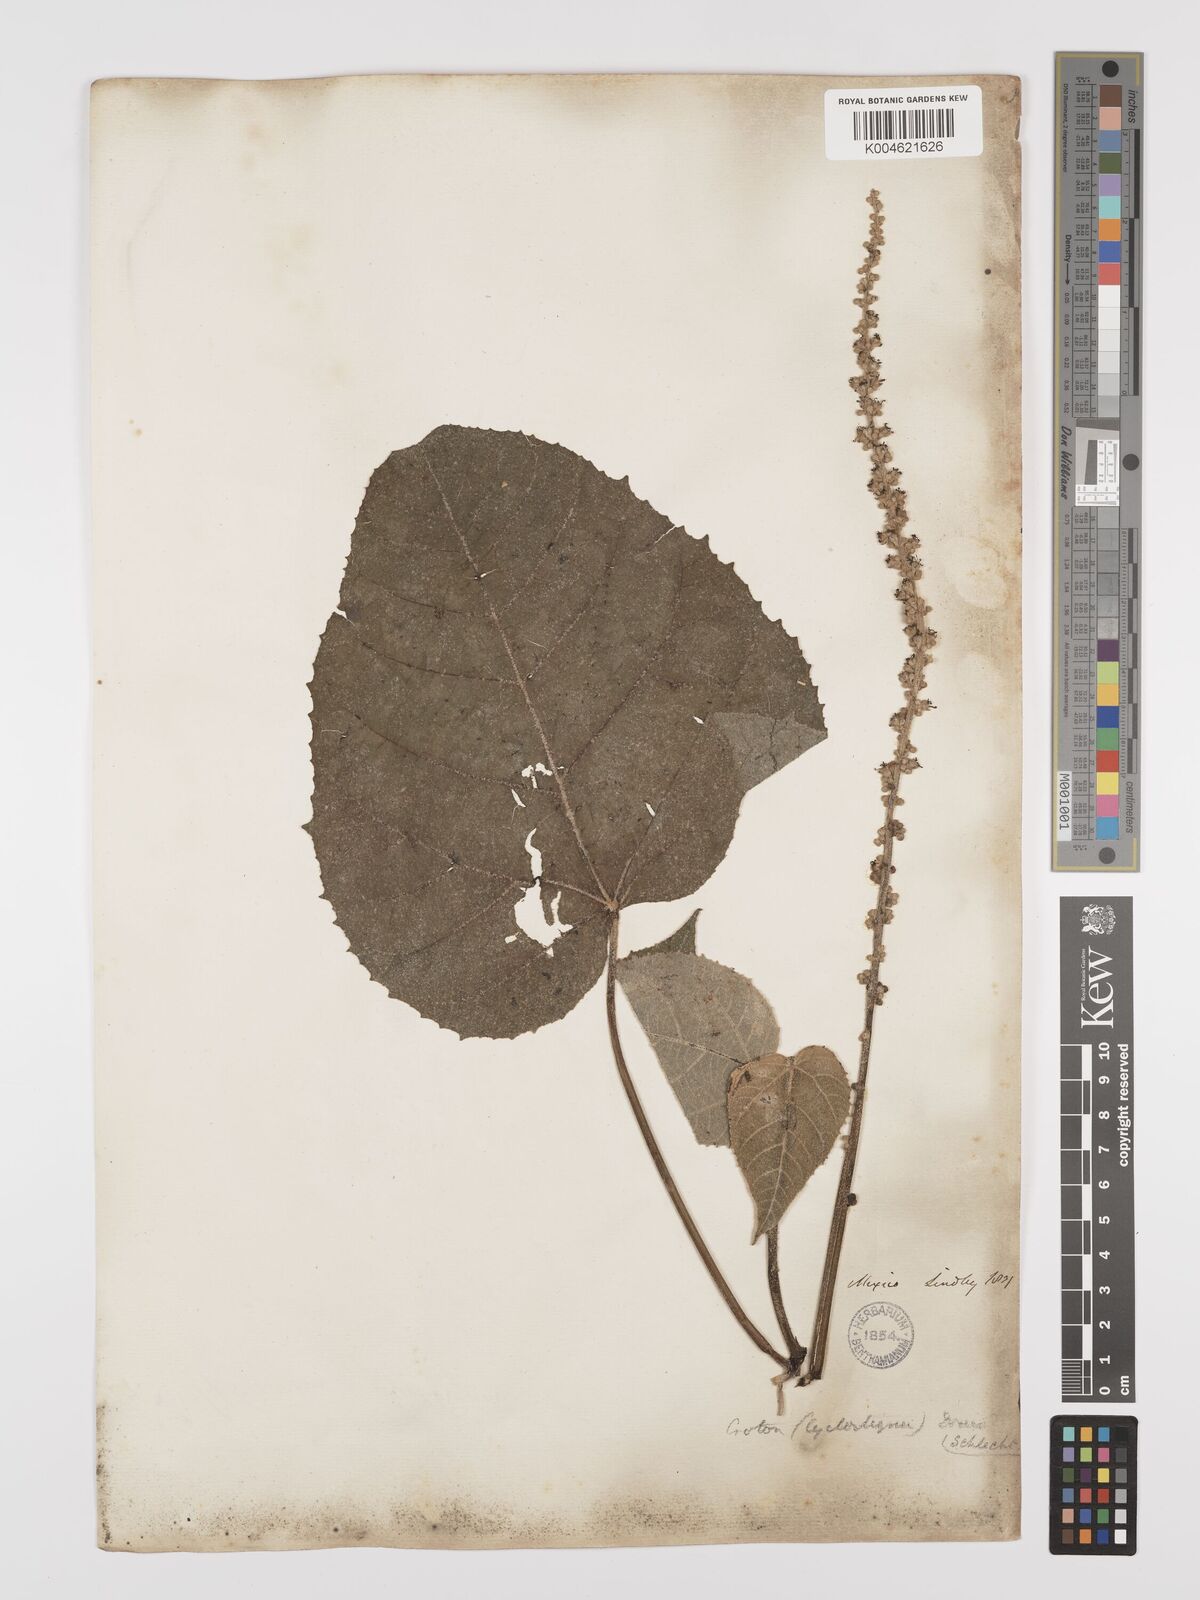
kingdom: Plantae
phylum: Tracheophyta
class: Magnoliopsida
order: Malpighiales
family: Euphorbiaceae
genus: Croton
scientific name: Croton draco
